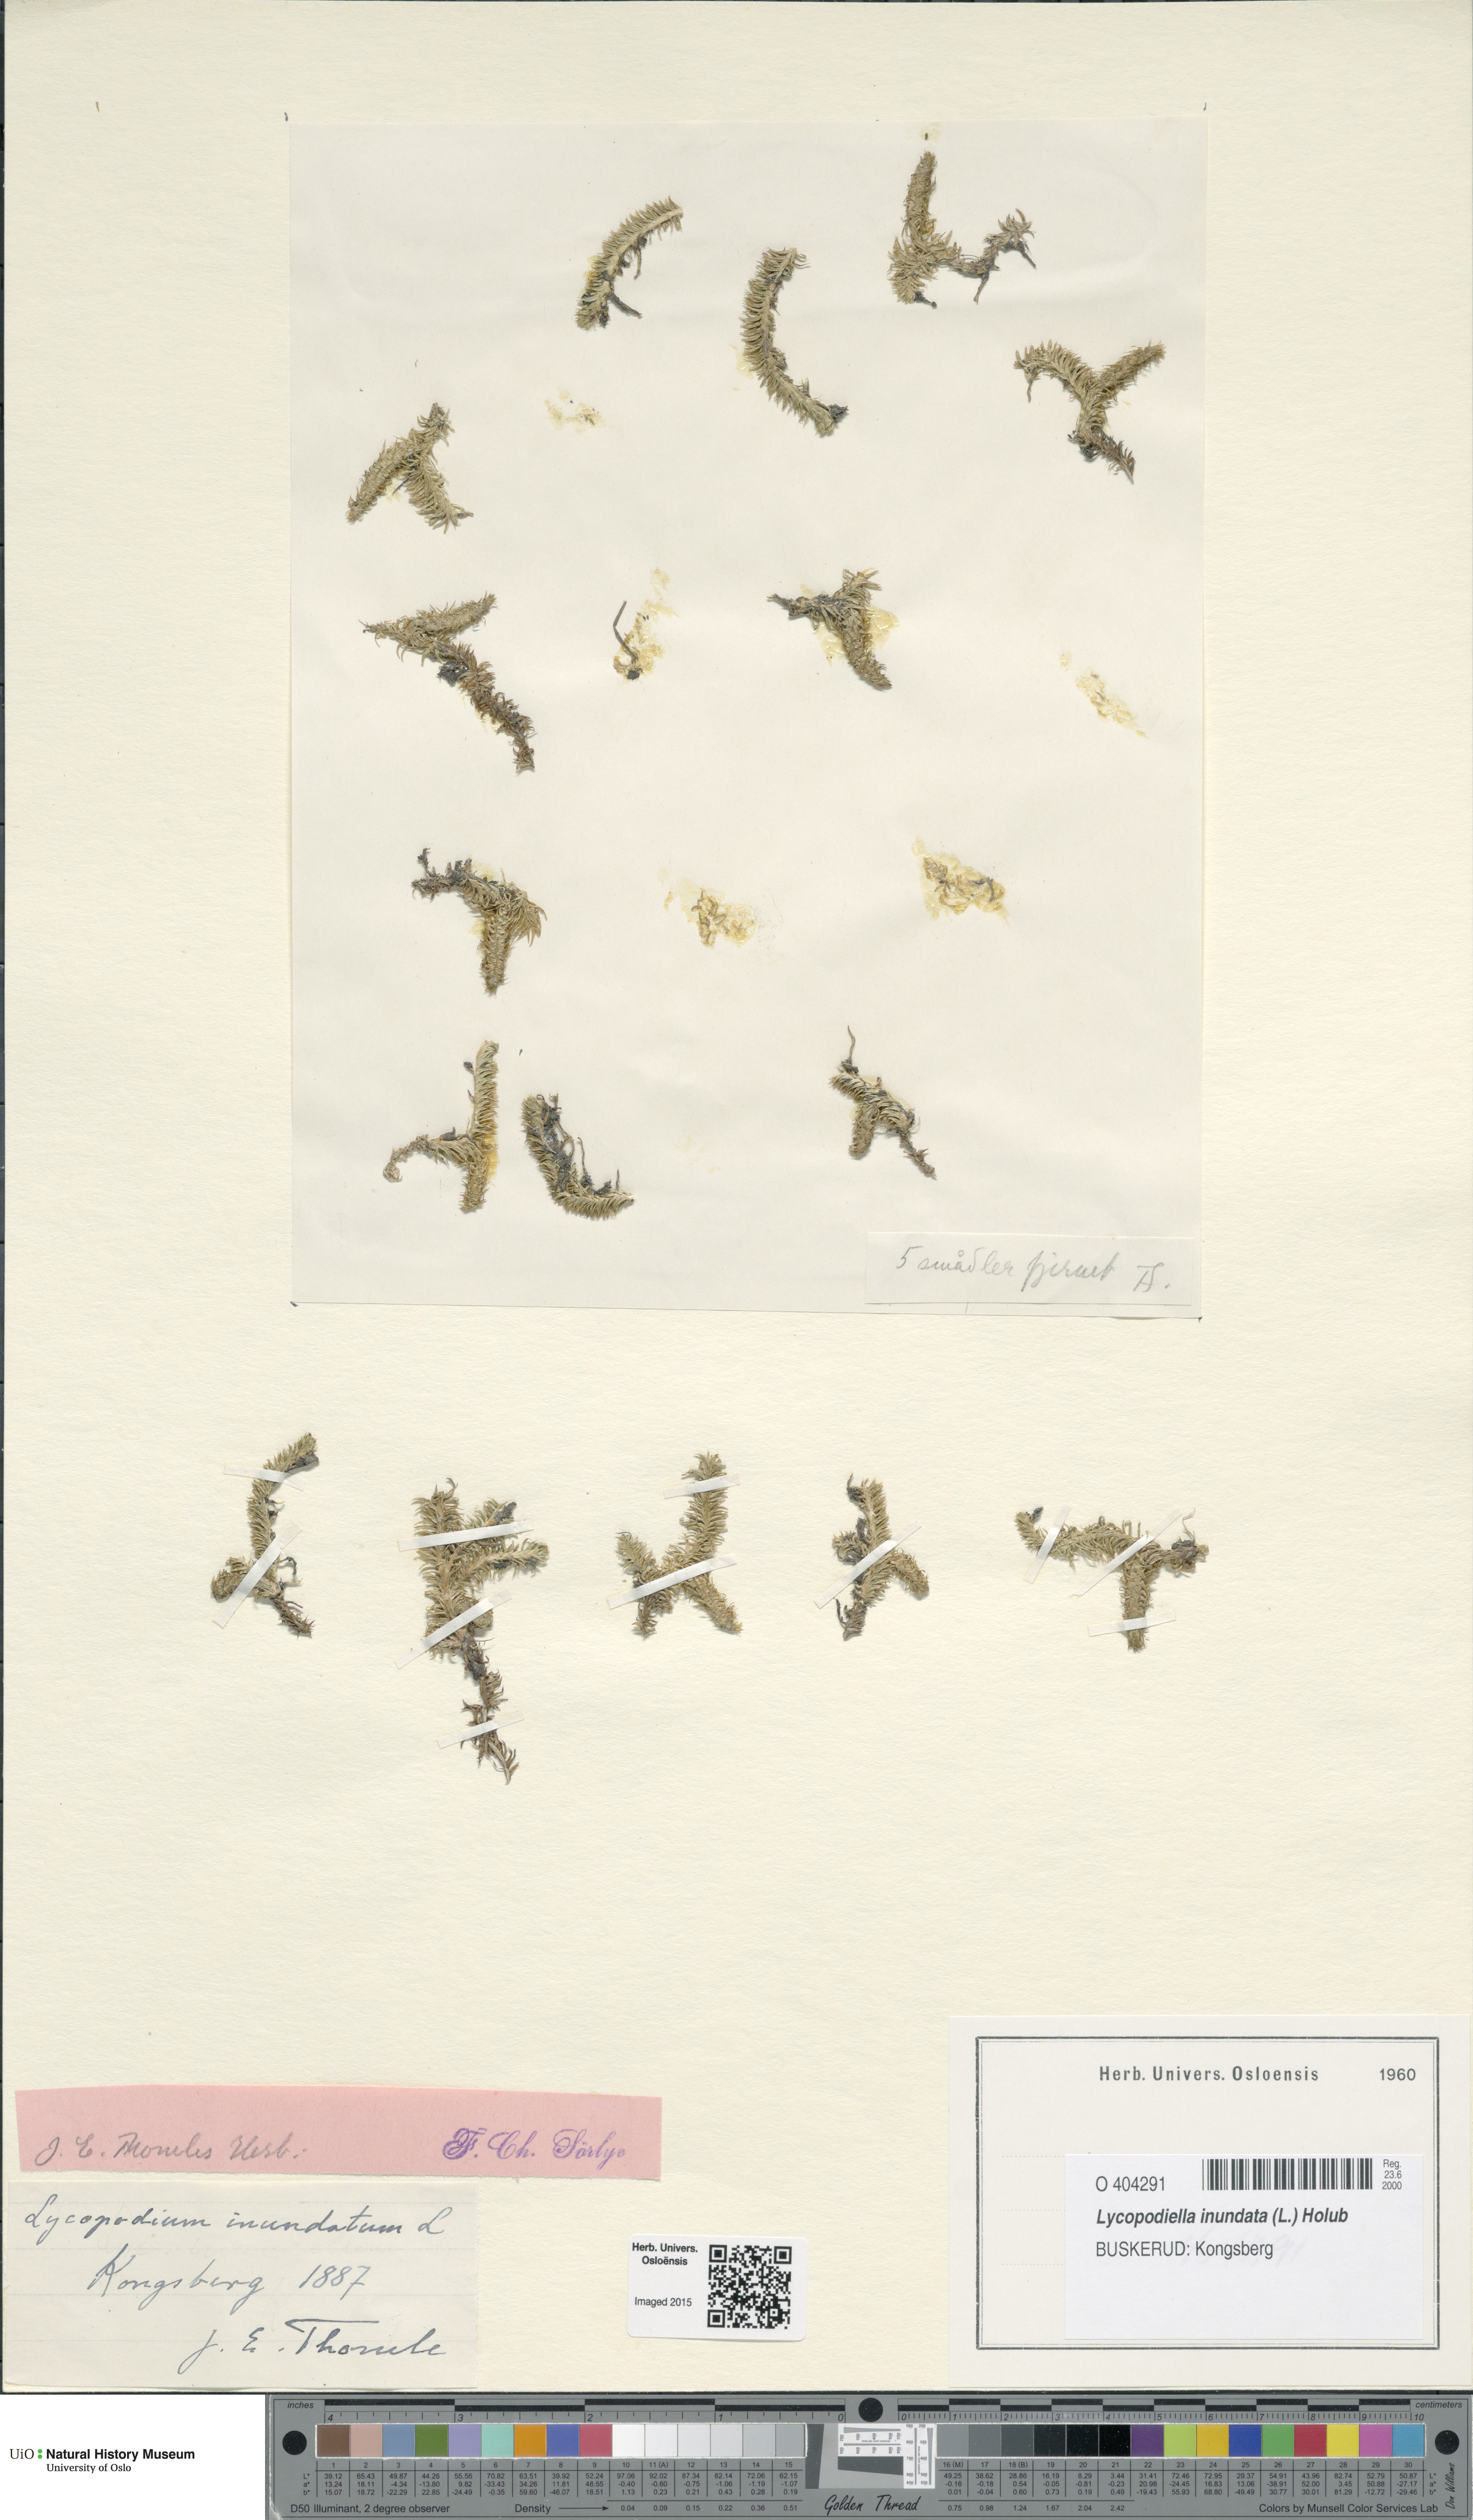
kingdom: Plantae
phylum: Tracheophyta
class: Lycopodiopsida
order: Lycopodiales
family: Lycopodiaceae
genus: Lycopodiella
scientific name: Lycopodiella inundata
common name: Marsh clubmoss
